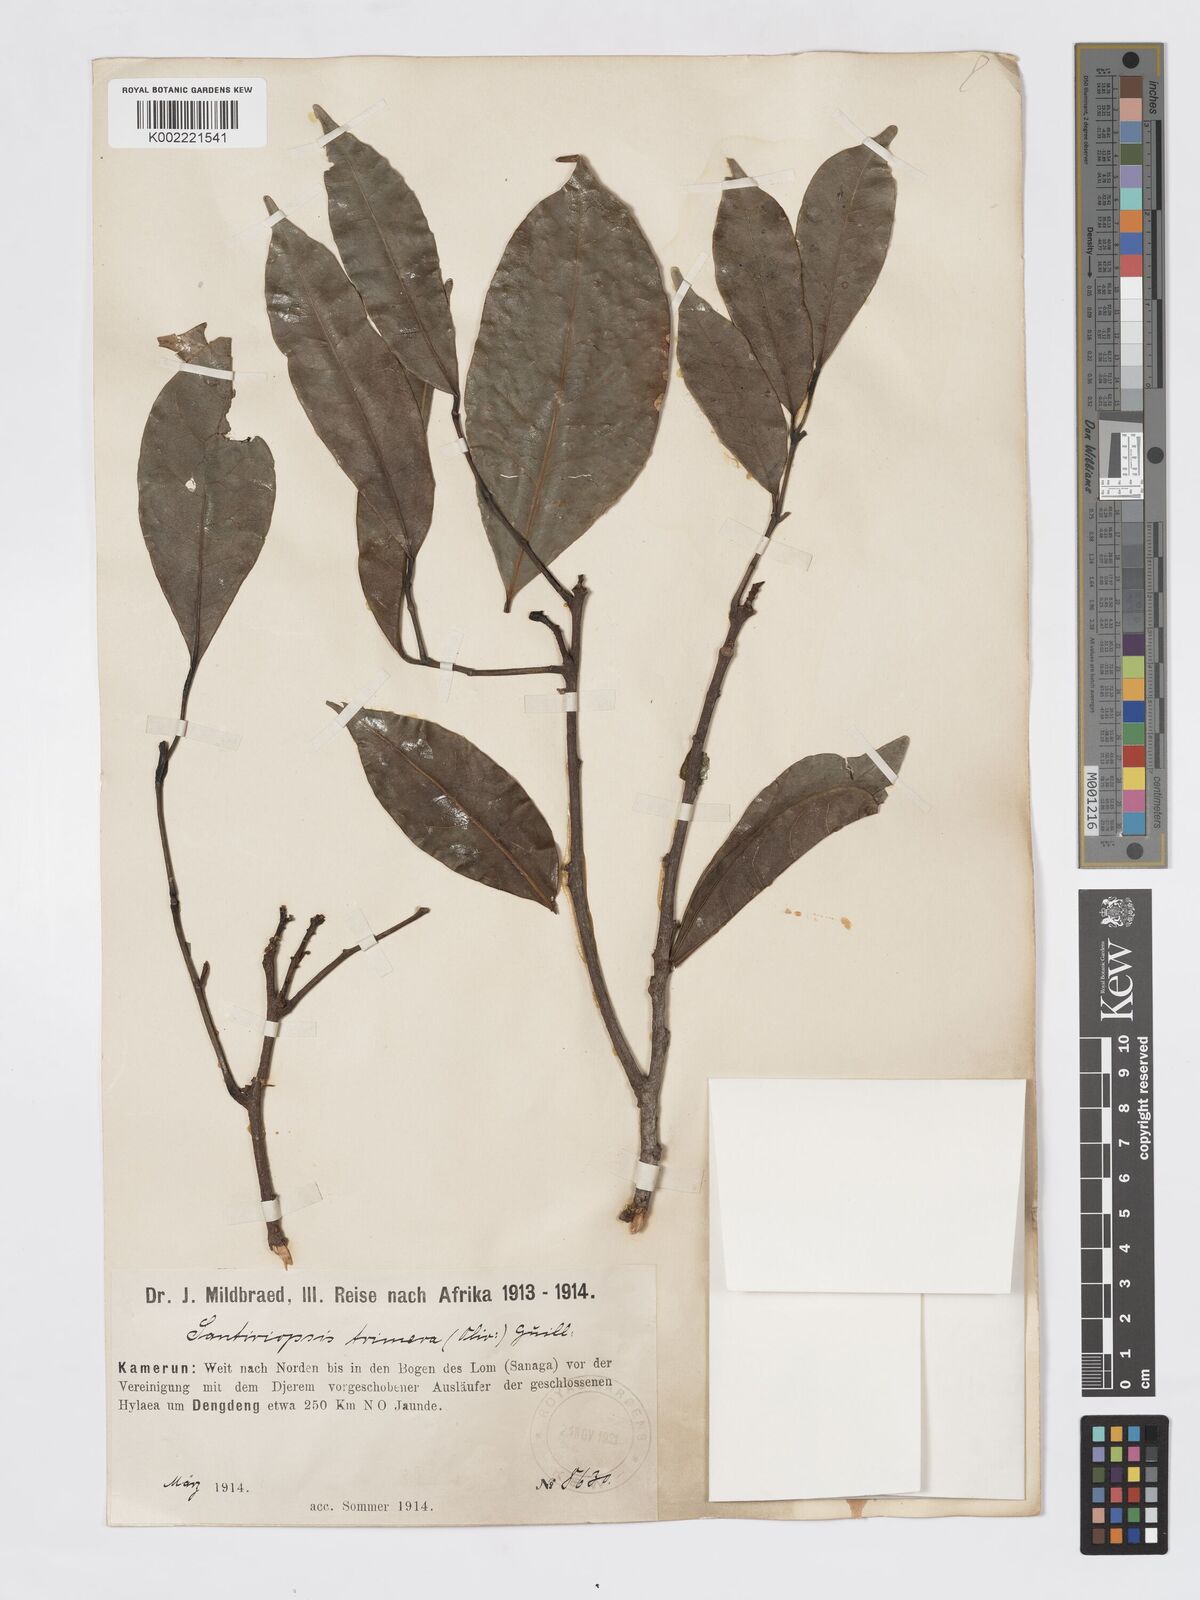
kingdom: Plantae
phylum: Tracheophyta
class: Magnoliopsida
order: Sapindales
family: Burseraceae
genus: Pachylobus
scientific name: Pachylobus trimerus
